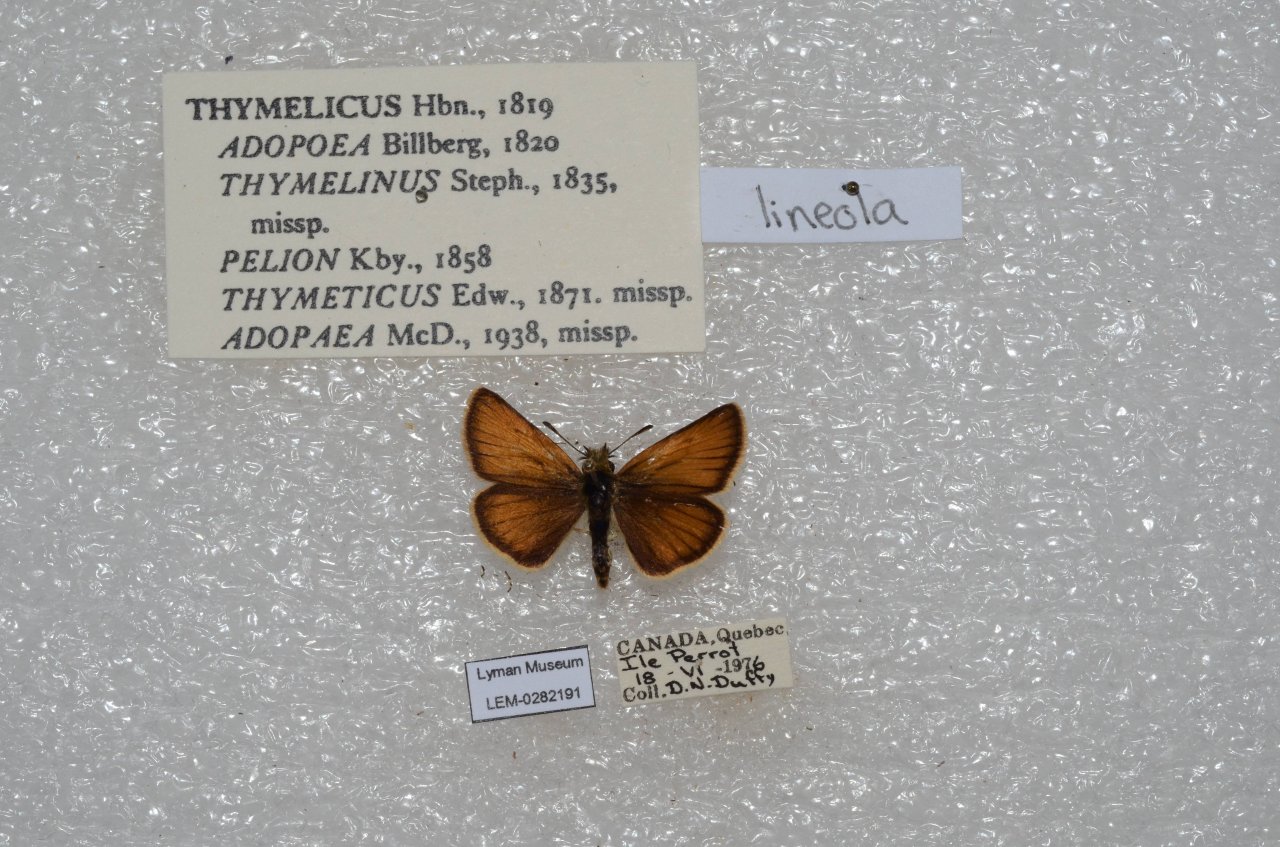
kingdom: Animalia
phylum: Arthropoda
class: Insecta
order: Lepidoptera
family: Hesperiidae
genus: Thymelicus
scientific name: Thymelicus lineola
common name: European Skipper
